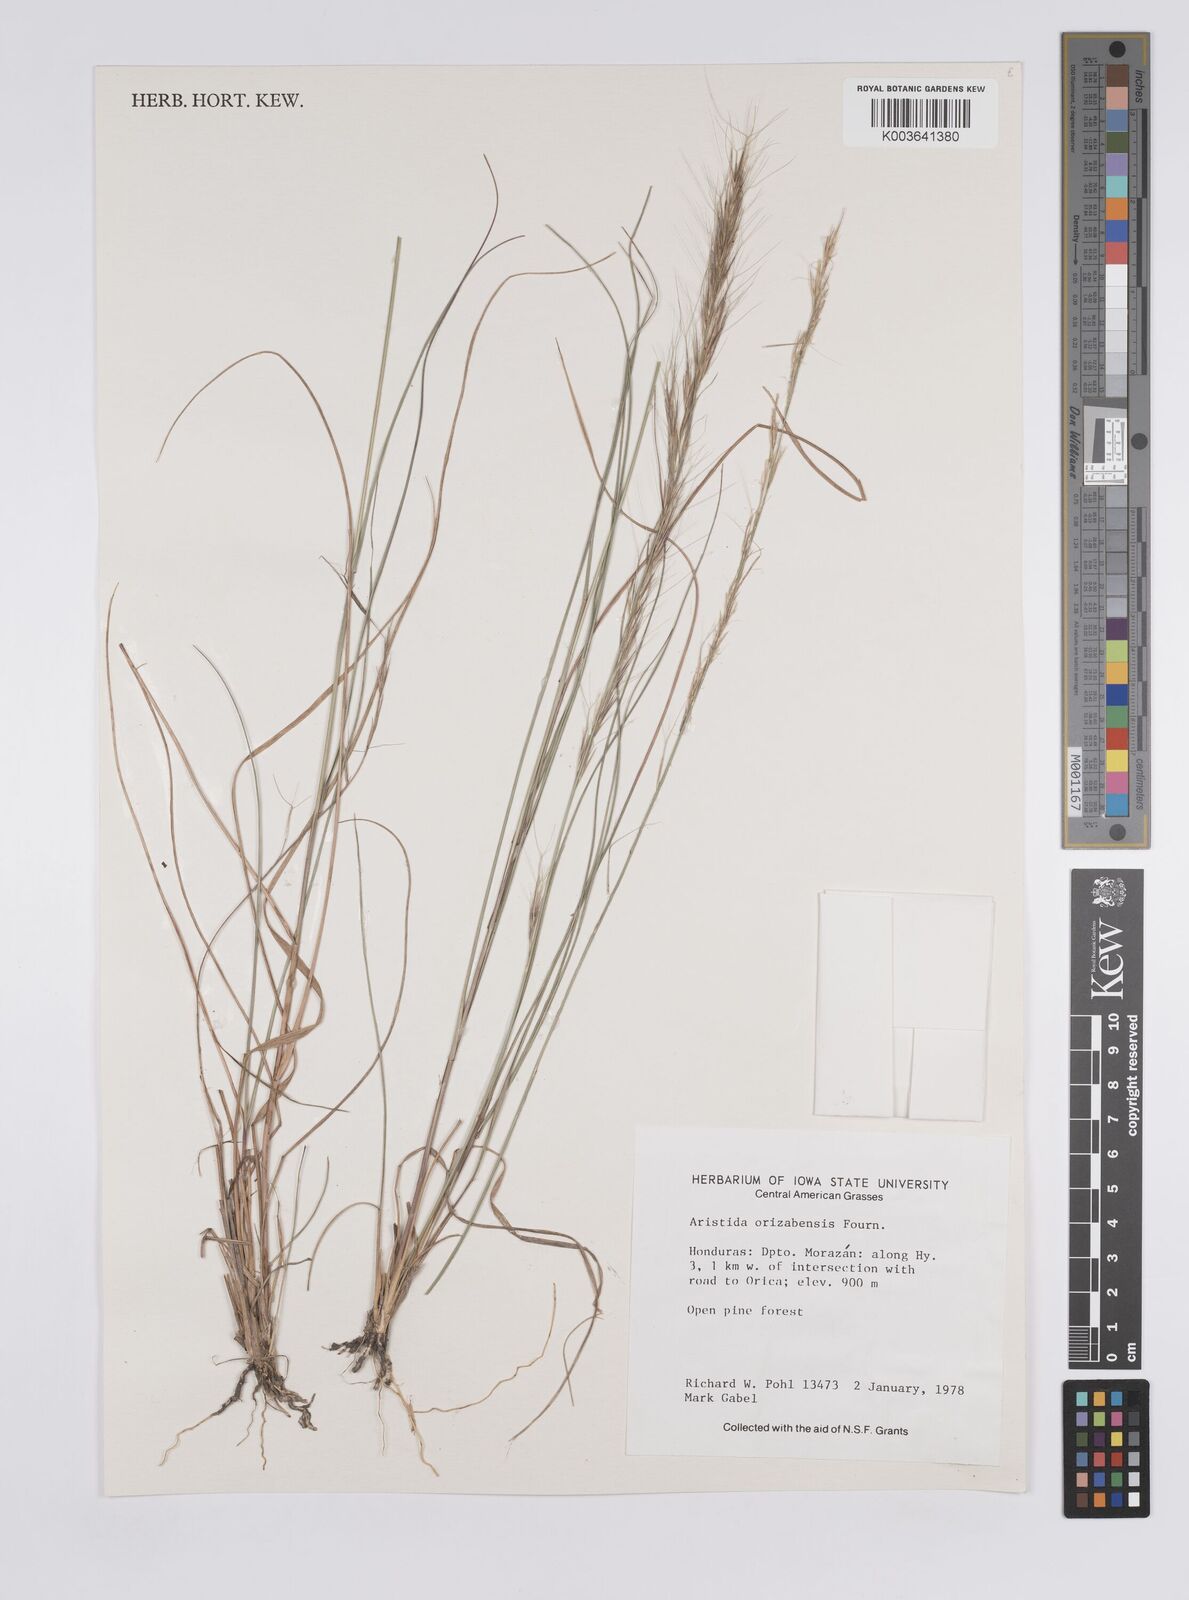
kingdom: Plantae
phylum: Tracheophyta
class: Liliopsida
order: Poales
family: Poaceae
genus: Aristida
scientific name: Aristida gibbosa
